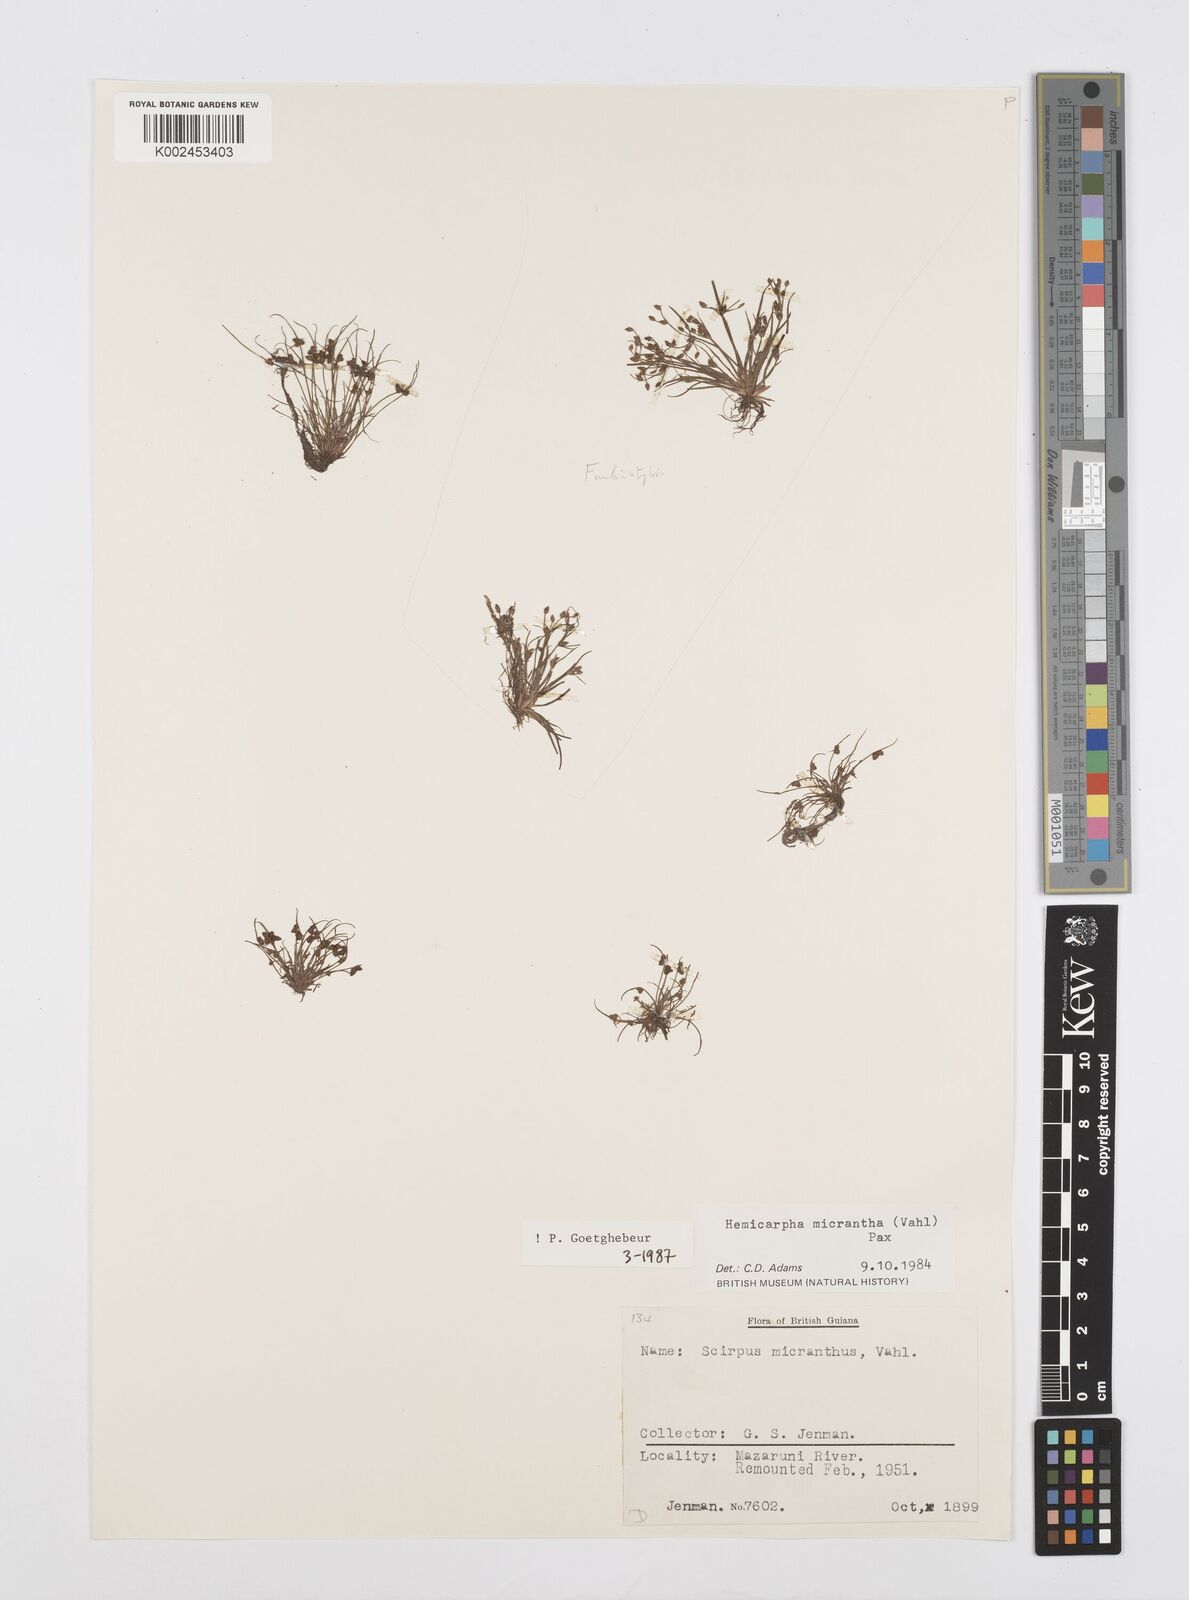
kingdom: Plantae
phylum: Tracheophyta
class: Liliopsida
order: Poales
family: Cyperaceae
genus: Cyperus
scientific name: Cyperus dentatus
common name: Dentate umbrella sedge
